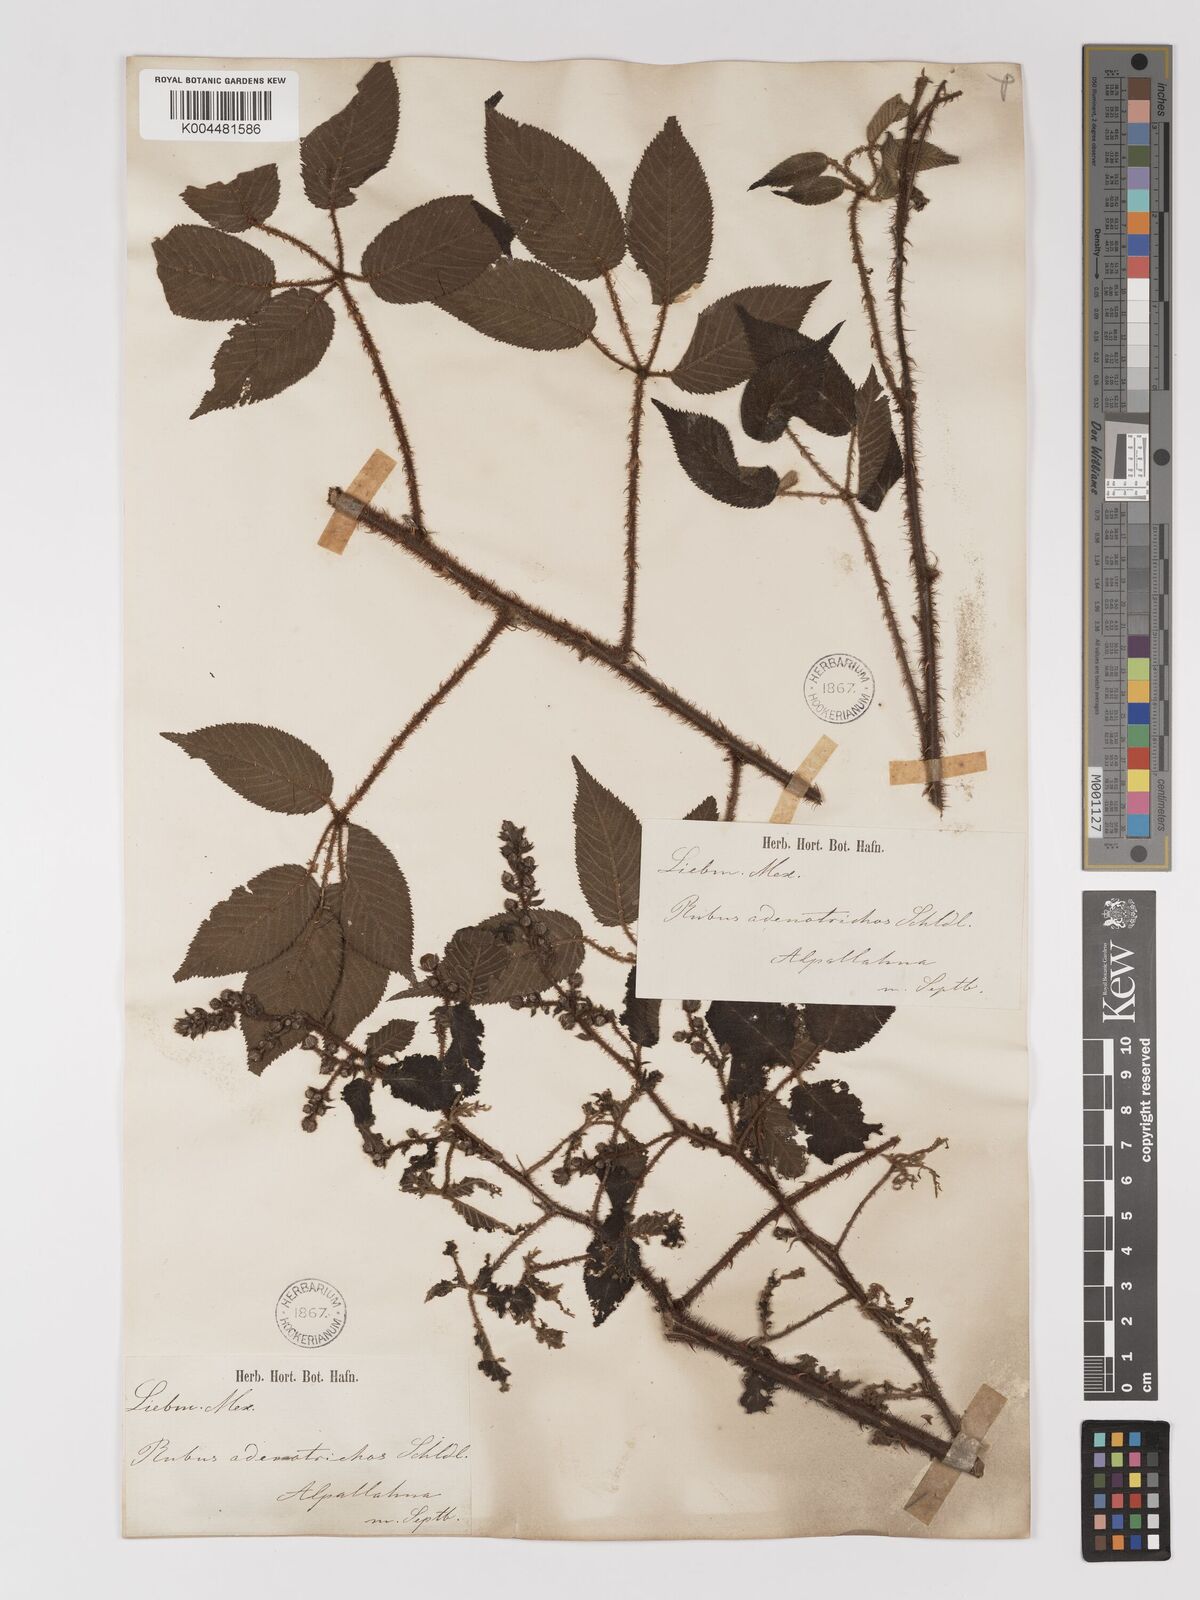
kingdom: Plantae
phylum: Tracheophyta
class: Magnoliopsida
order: Rosales
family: Rosaceae
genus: Rubus
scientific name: Rubus adenotrichos
